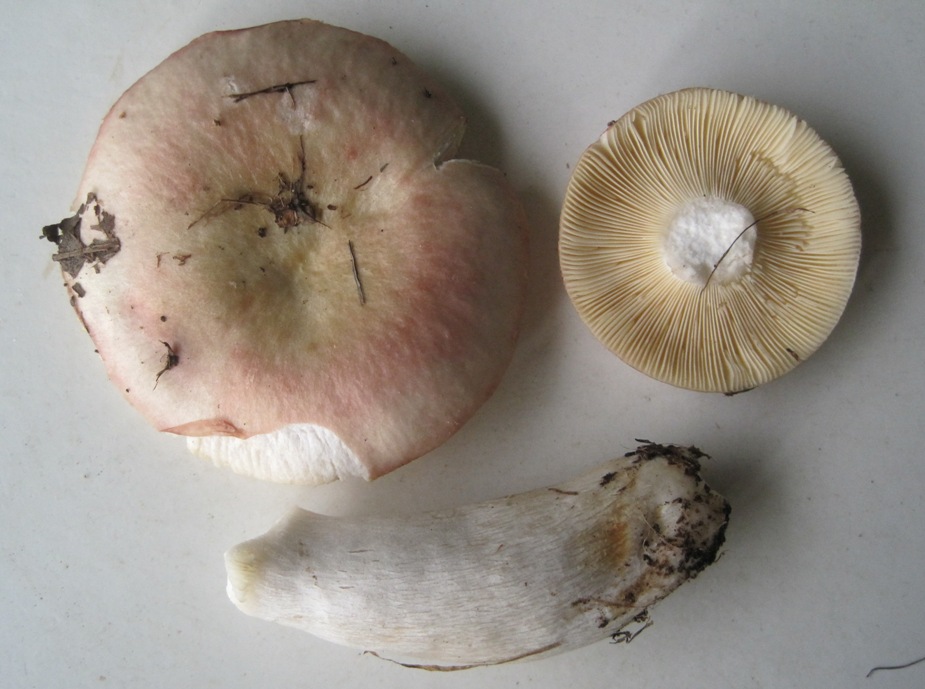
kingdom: Fungi
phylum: Basidiomycota
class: Agaricomycetes
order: Russulales
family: Russulaceae
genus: Russula
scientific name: Russula depallens
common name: falmende skørhat
